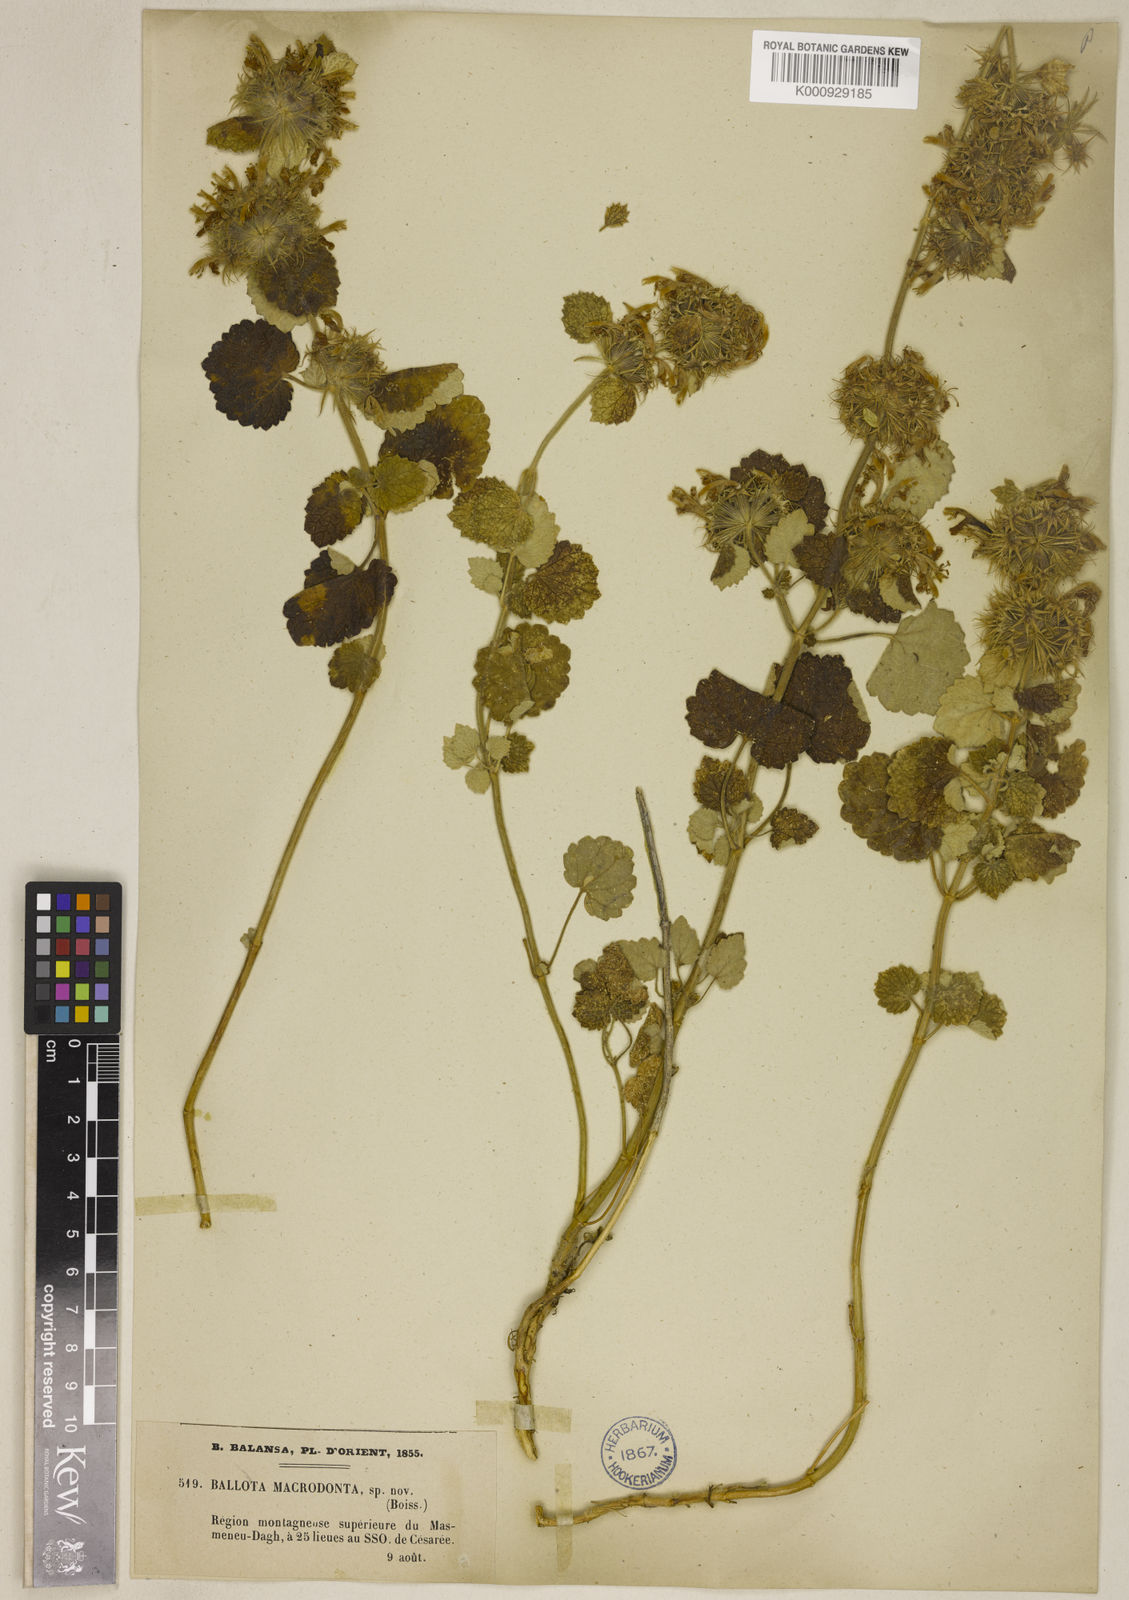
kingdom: Plantae
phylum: Tracheophyta
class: Magnoliopsida
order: Lamiales
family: Lamiaceae
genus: Ballota
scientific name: Ballota macrodonta
